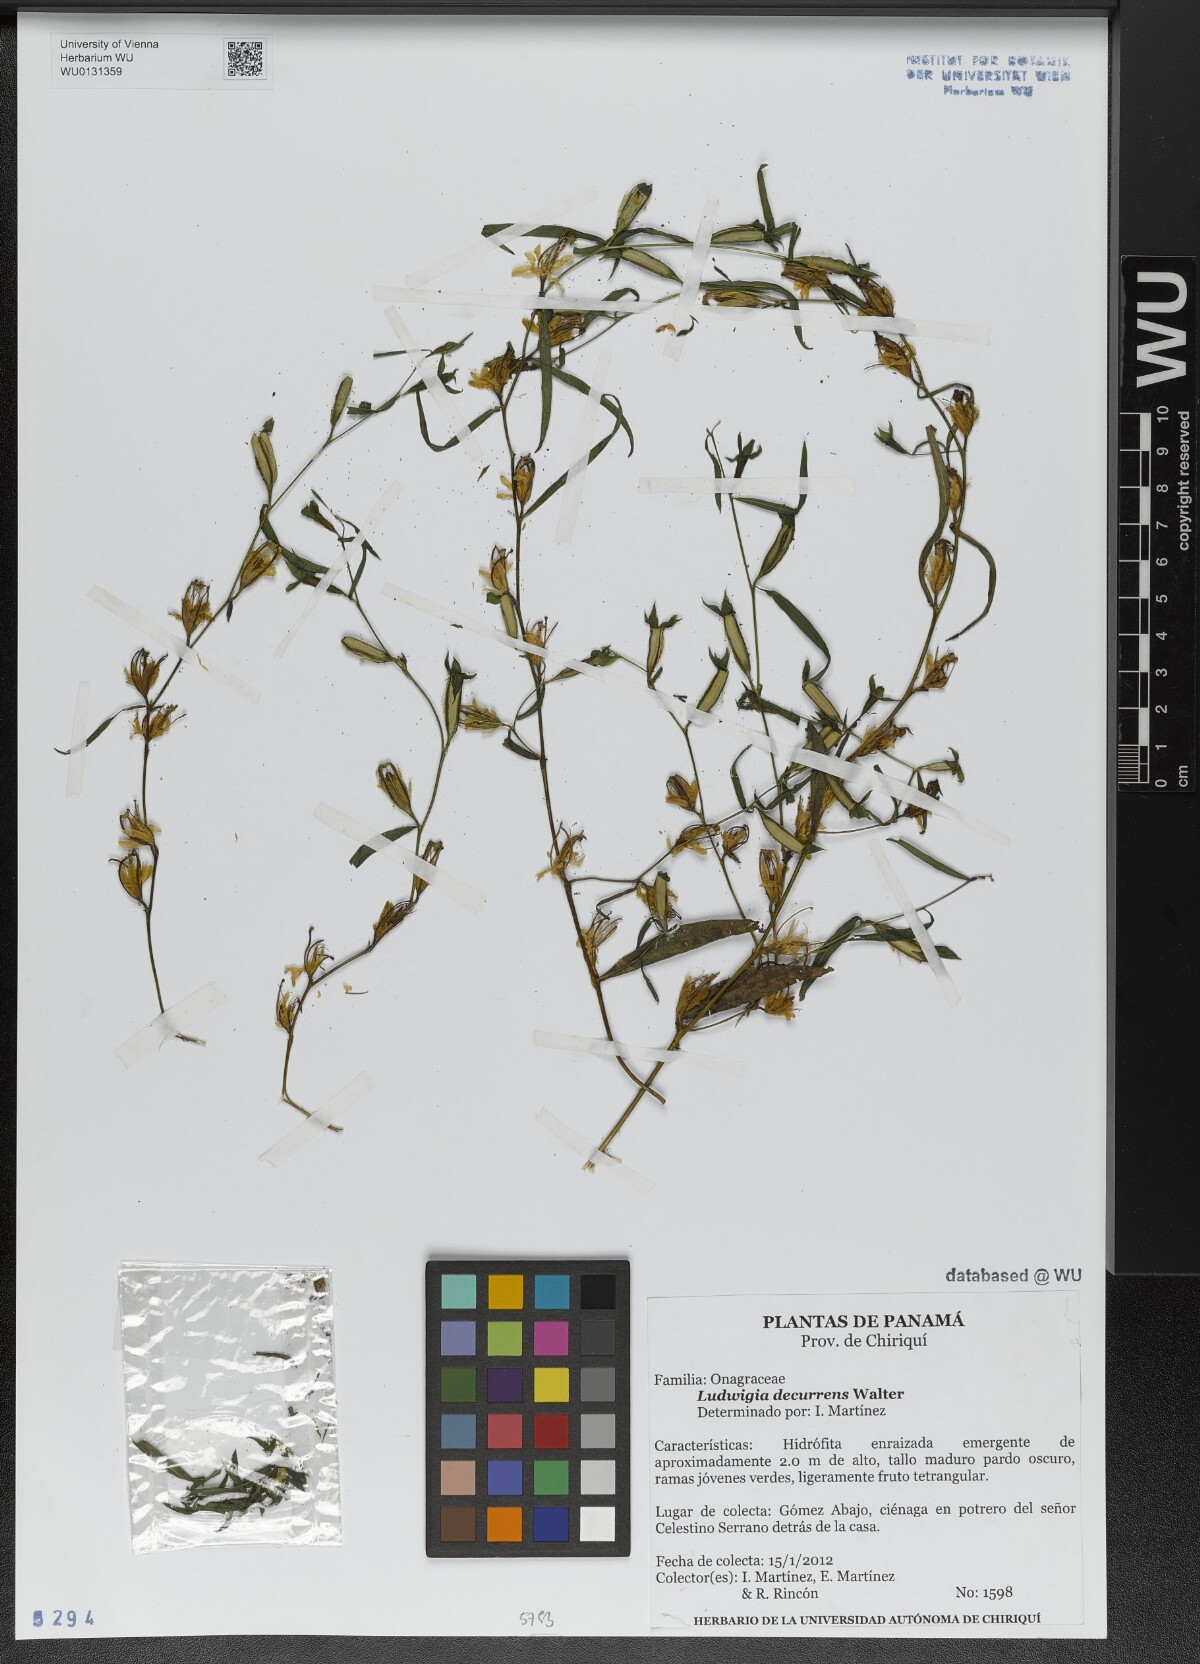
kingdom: Plantae
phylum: Tracheophyta
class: Magnoliopsida
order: Myrtales
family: Onagraceae
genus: Ludwigia
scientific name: Ludwigia decurrens
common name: Winged water-primrose
